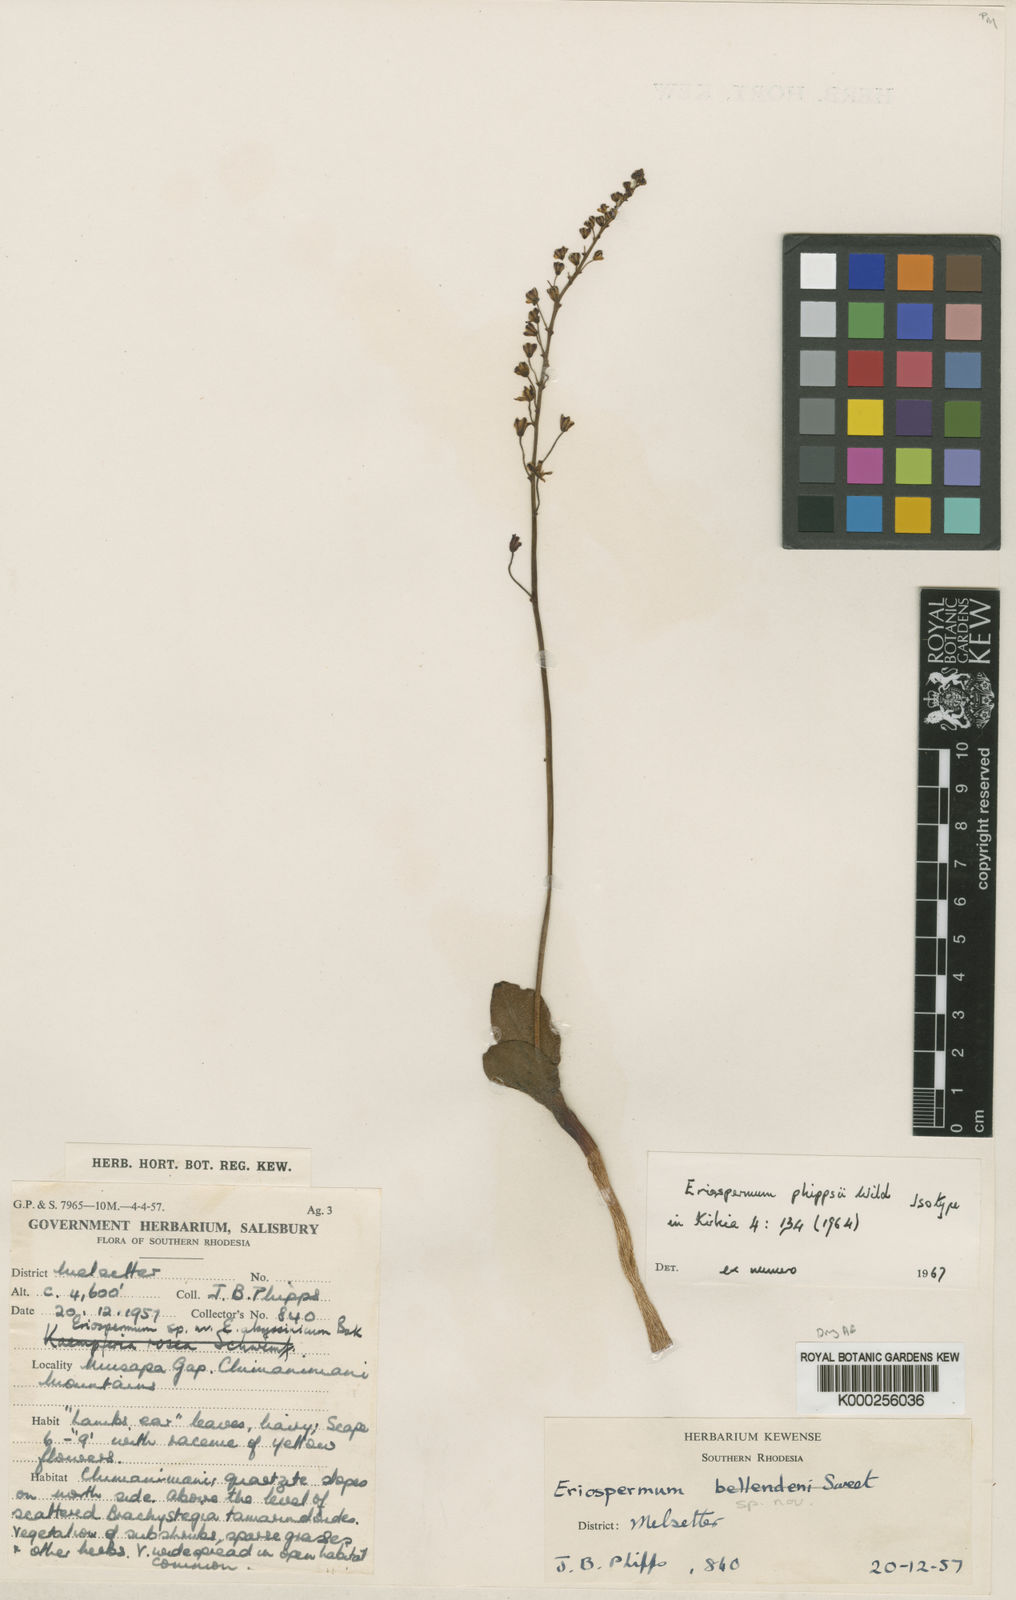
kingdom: Plantae
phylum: Tracheophyta
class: Liliopsida
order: Asparagales
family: Asparagaceae
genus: Eriospermum
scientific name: Eriospermum mackenii
